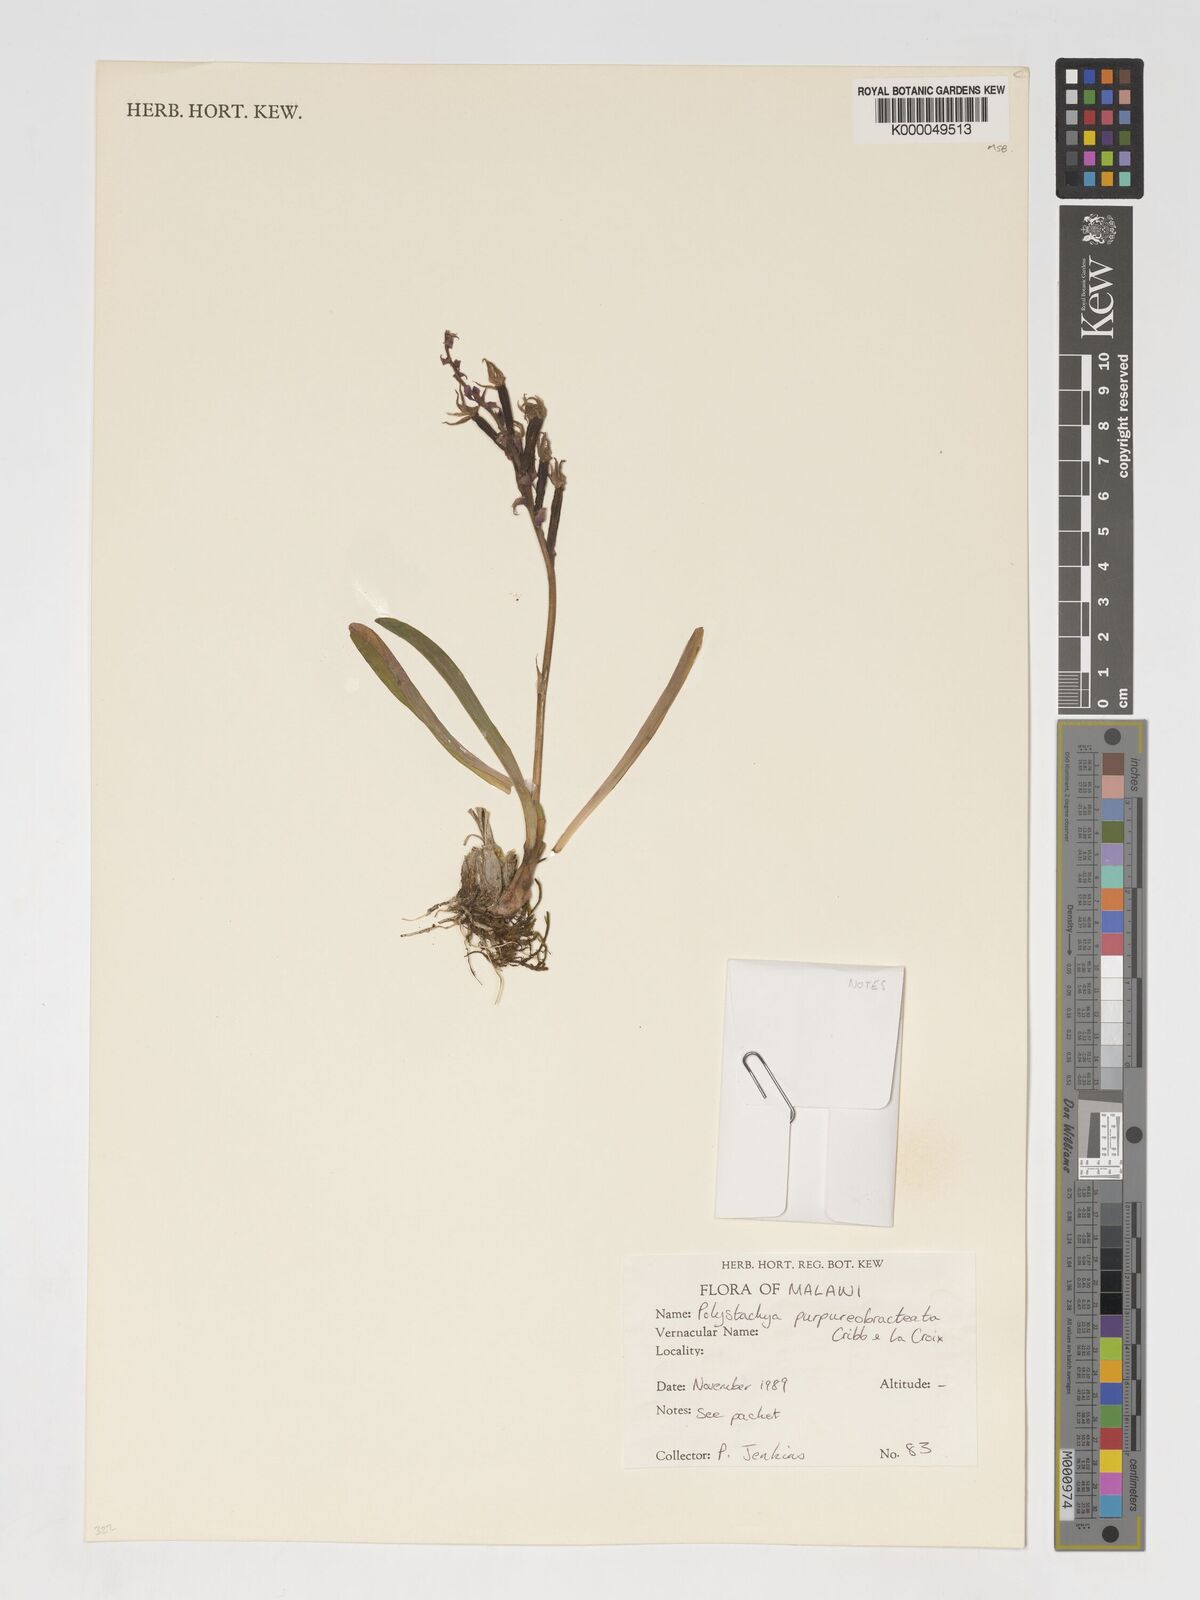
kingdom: Plantae
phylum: Tracheophyta
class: Liliopsida
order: Asparagales
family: Orchidaceae
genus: Polystachya
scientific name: Polystachya purpureobracteata
